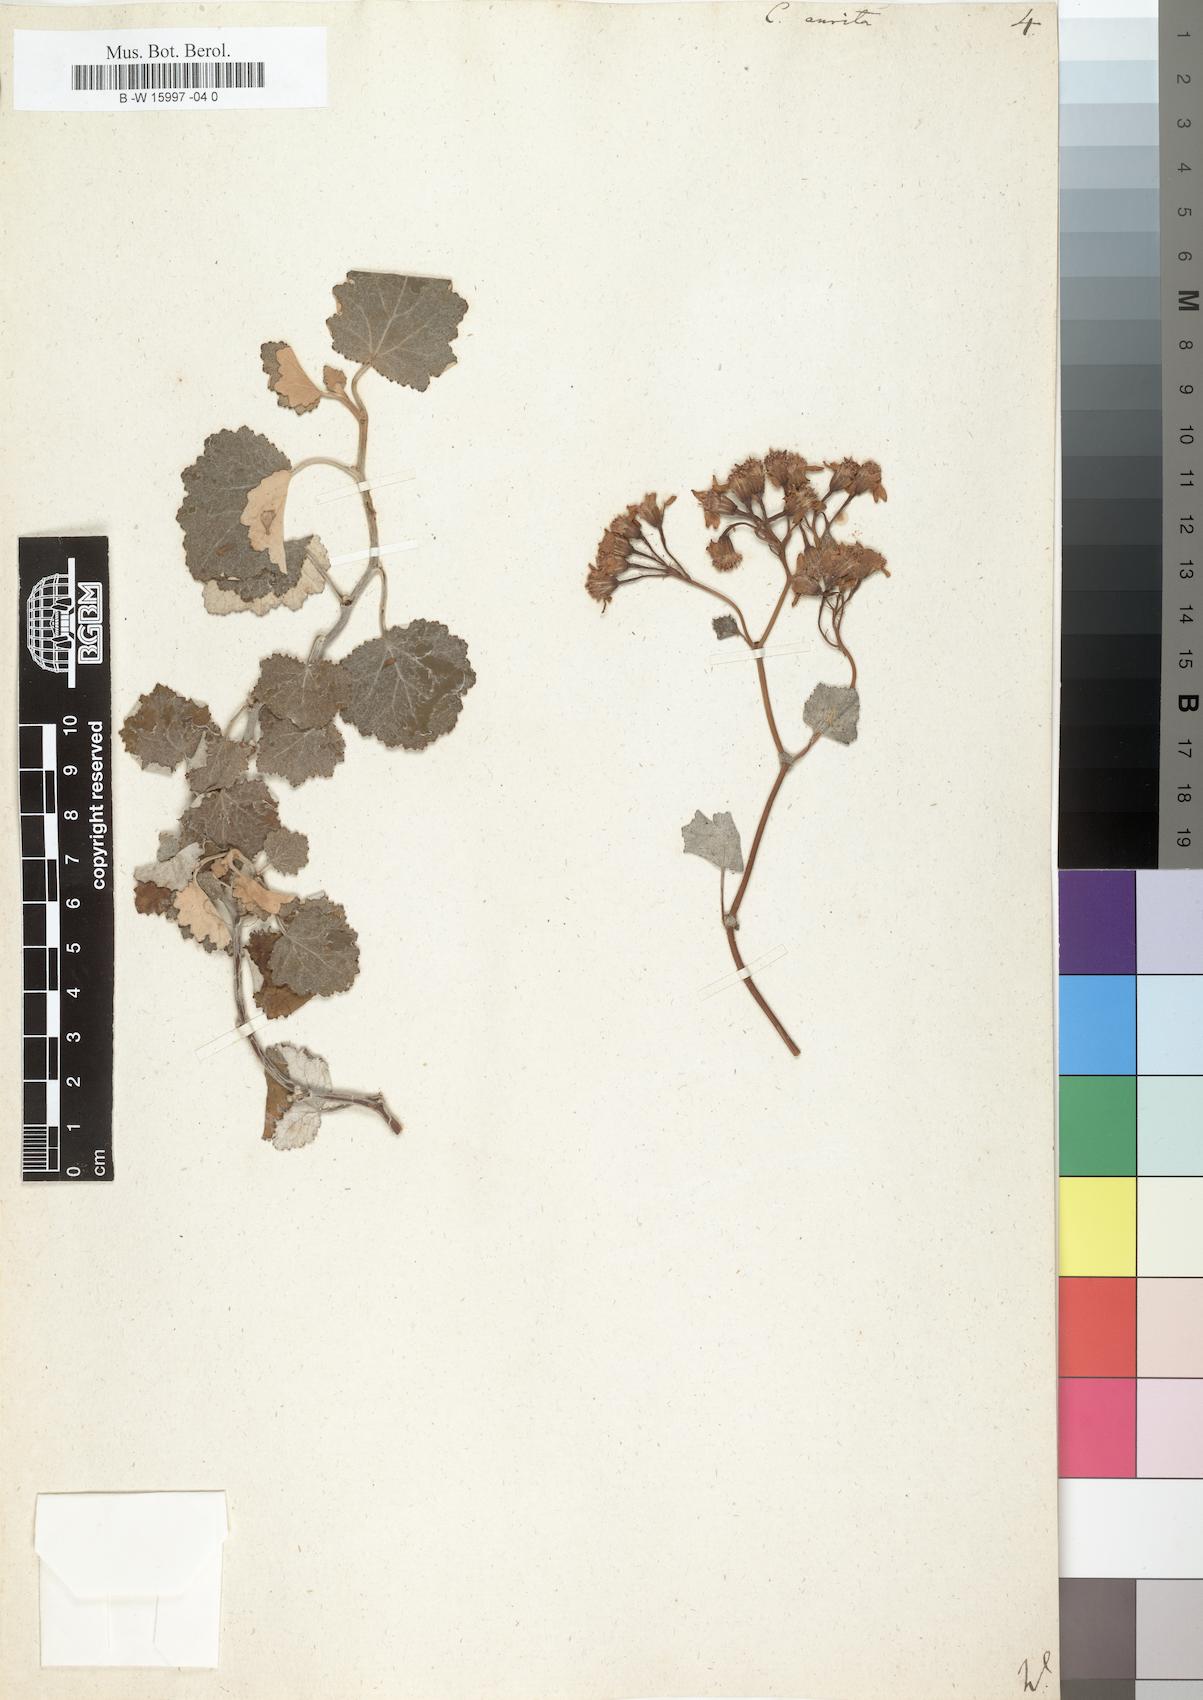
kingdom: Plantae
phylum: Tracheophyta
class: Magnoliopsida
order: Asterales
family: Asteraceae
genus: Pericallis
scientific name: Pericallis lanata
